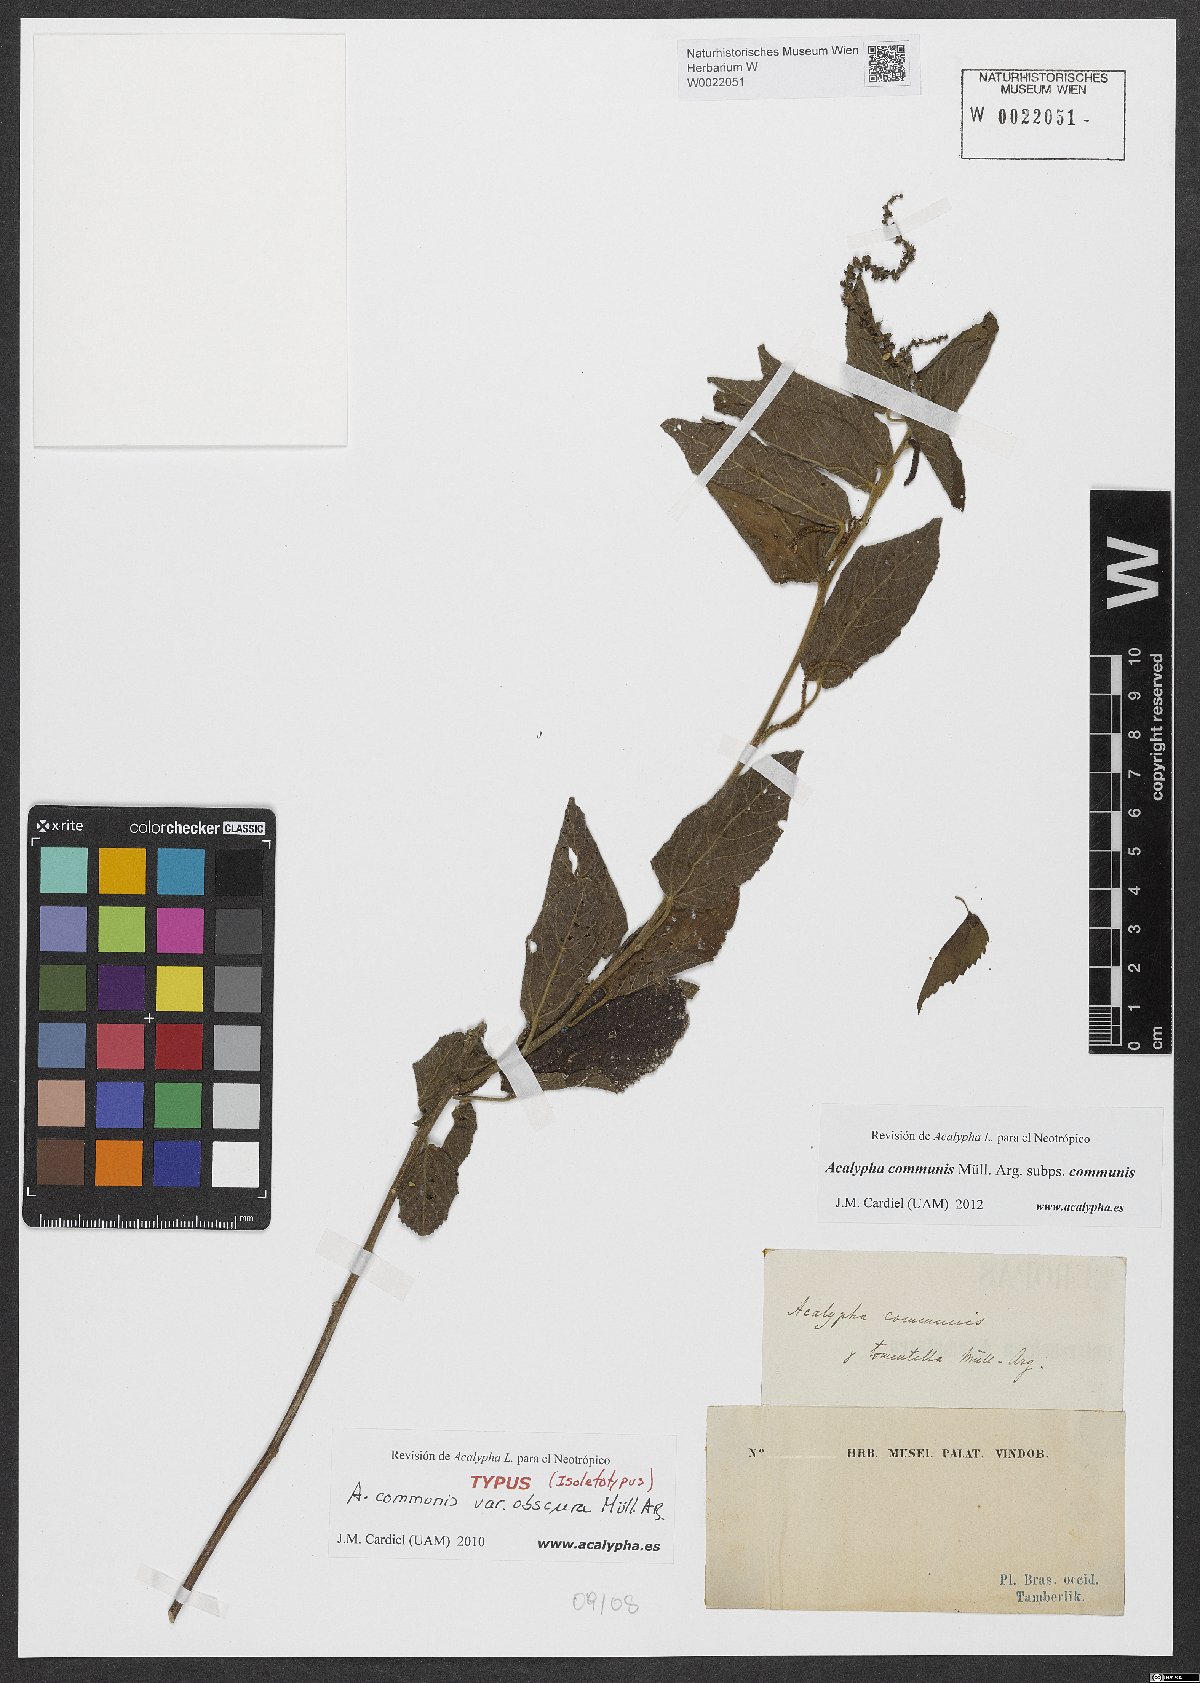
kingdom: Plantae
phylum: Tracheophyta
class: Magnoliopsida
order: Malpighiales
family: Euphorbiaceae
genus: Acalypha
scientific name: Acalypha communis
